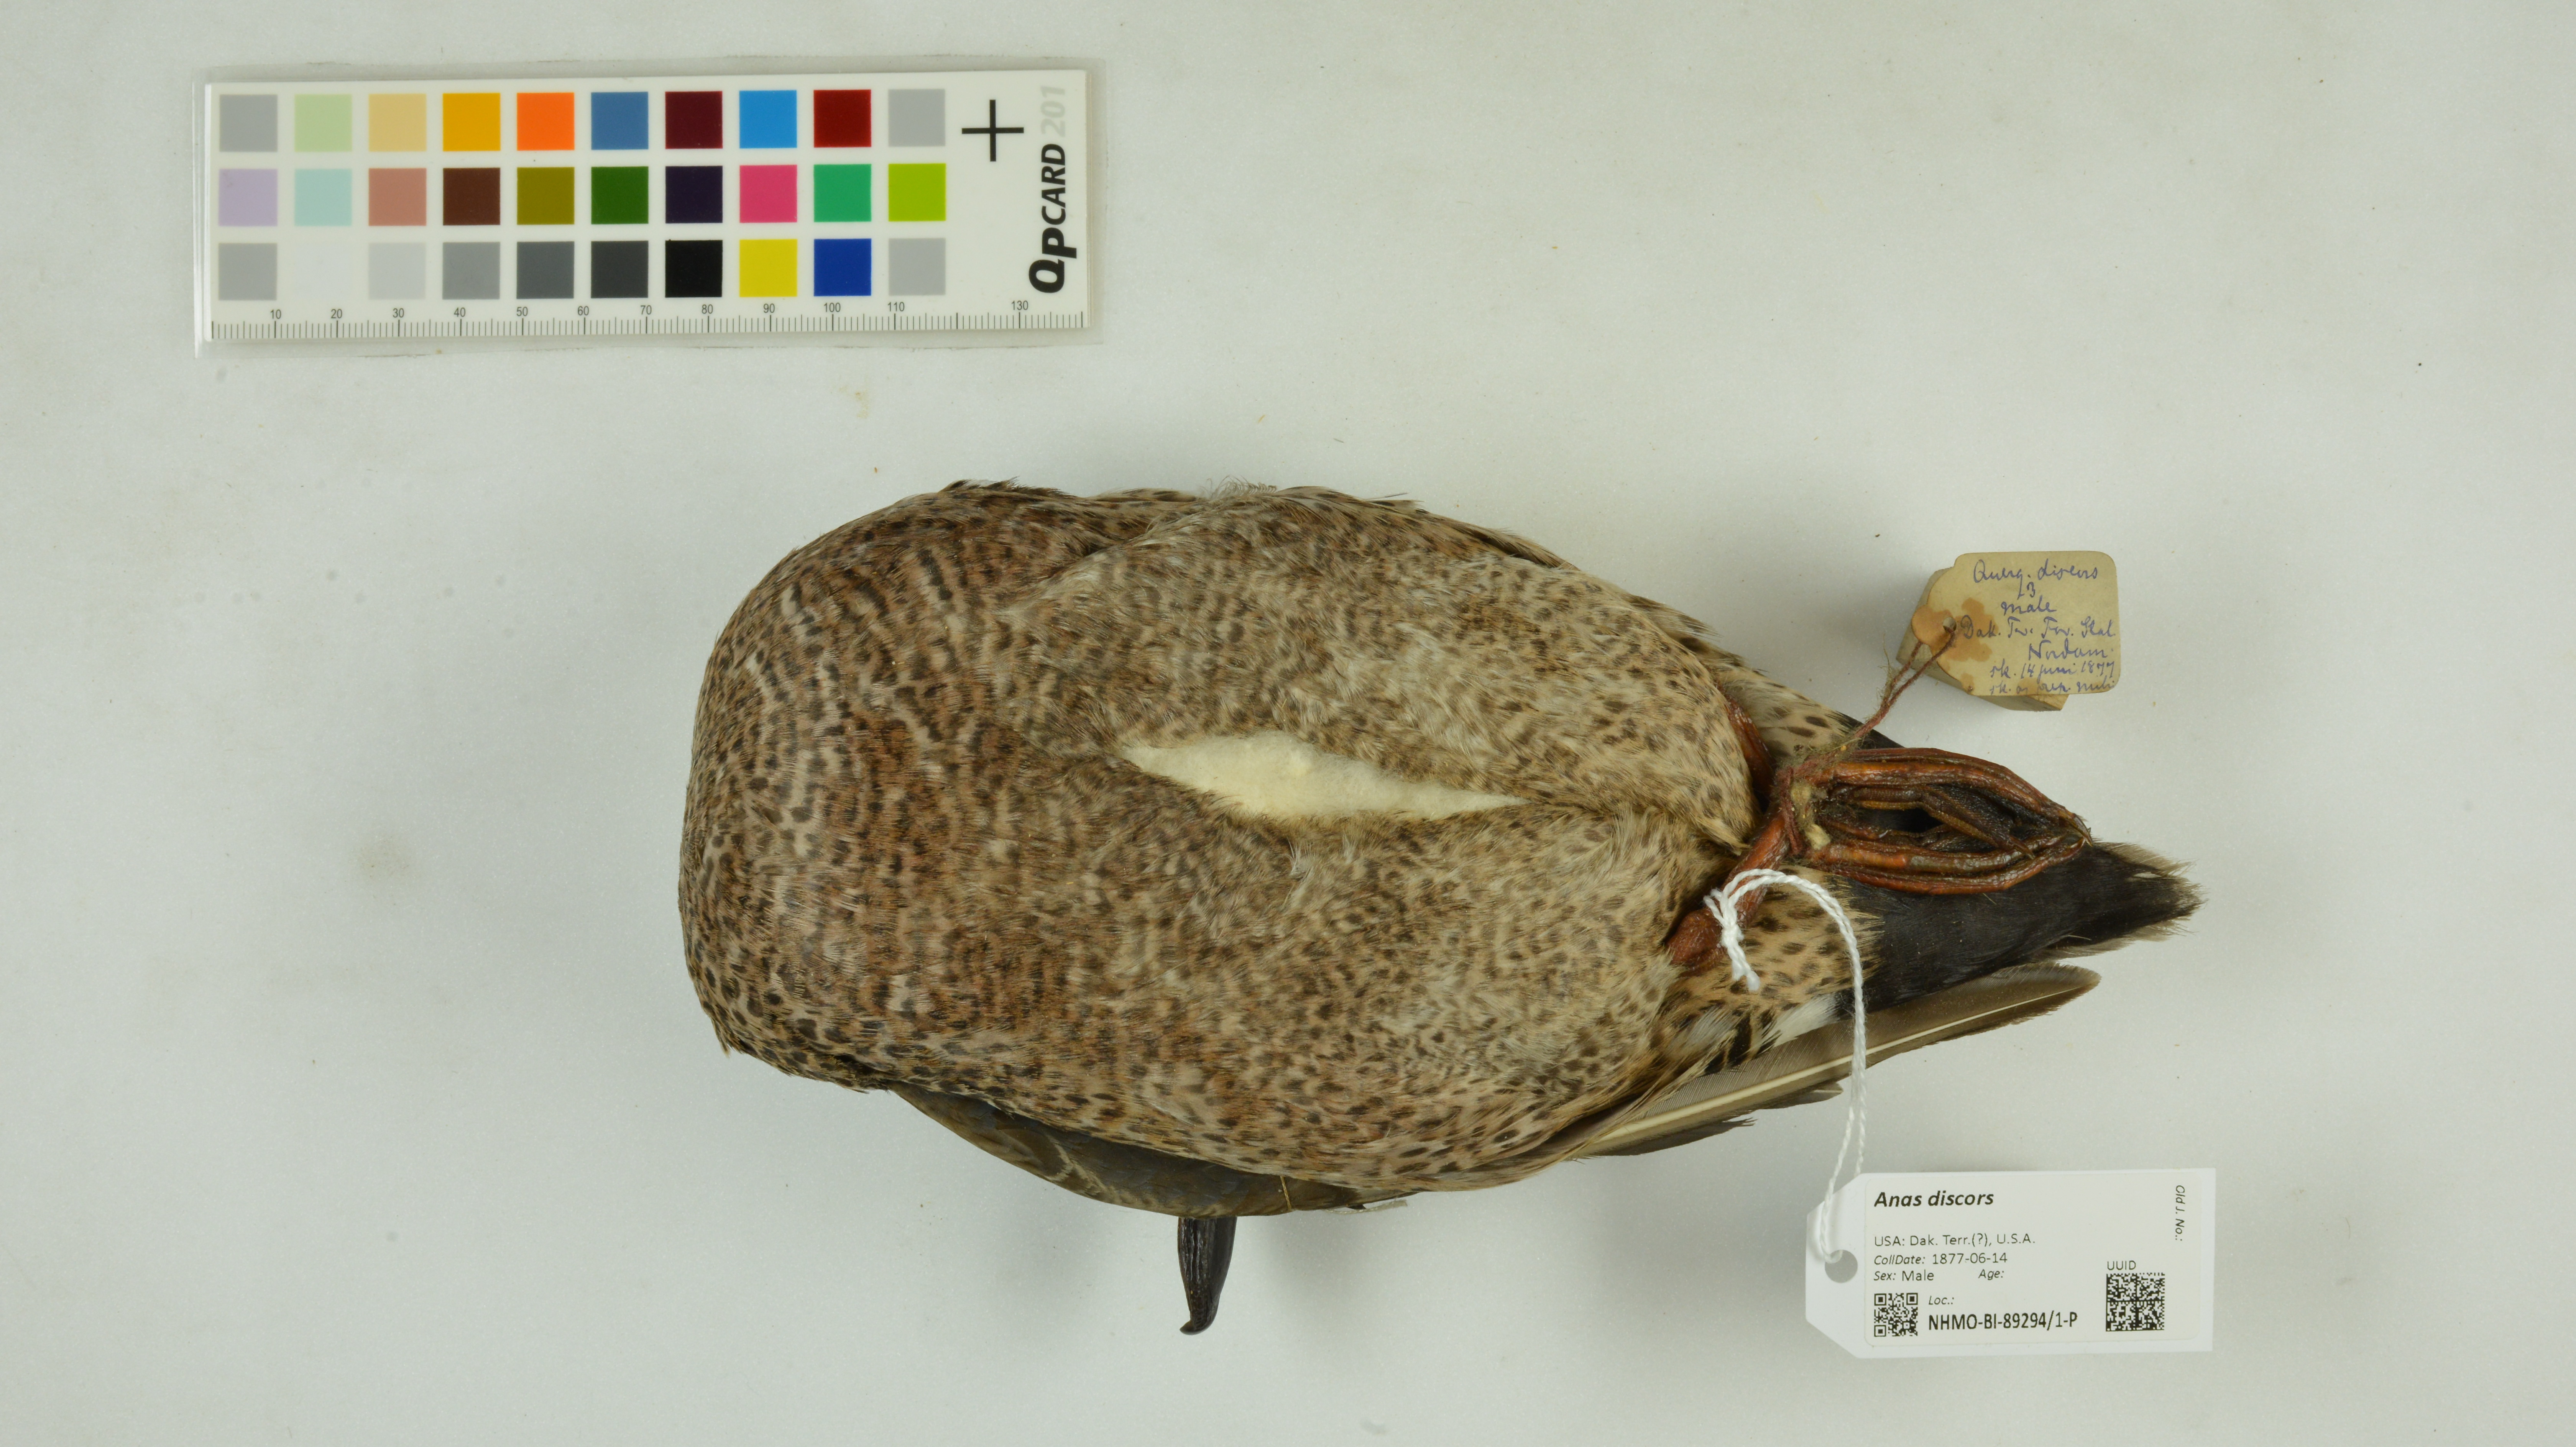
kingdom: Animalia
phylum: Chordata
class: Aves
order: Anseriformes
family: Anatidae
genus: Spatula
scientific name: Spatula discors
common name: Blue-winged teal
